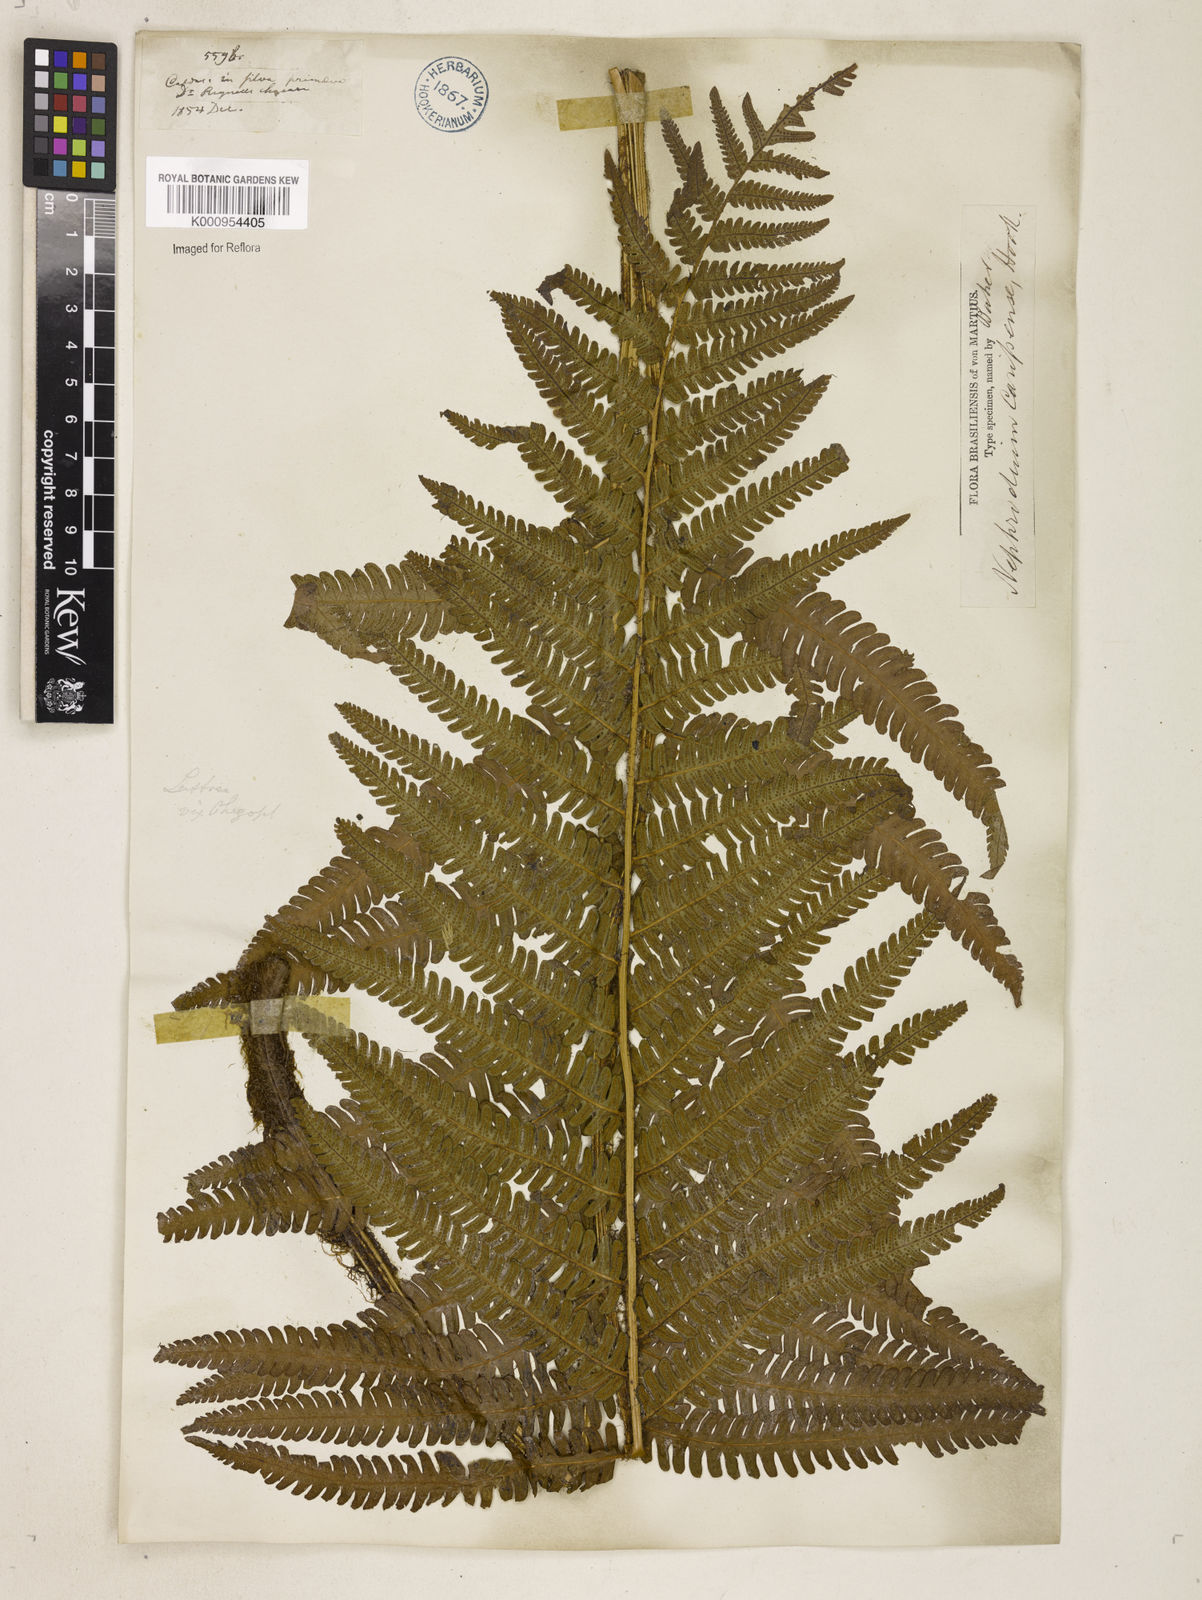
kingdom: Plantae
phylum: Tracheophyta
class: Polypodiopsida
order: Polypodiales
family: Dryopteridaceae
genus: Ctenitis
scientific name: Ctenitis submarginalis
